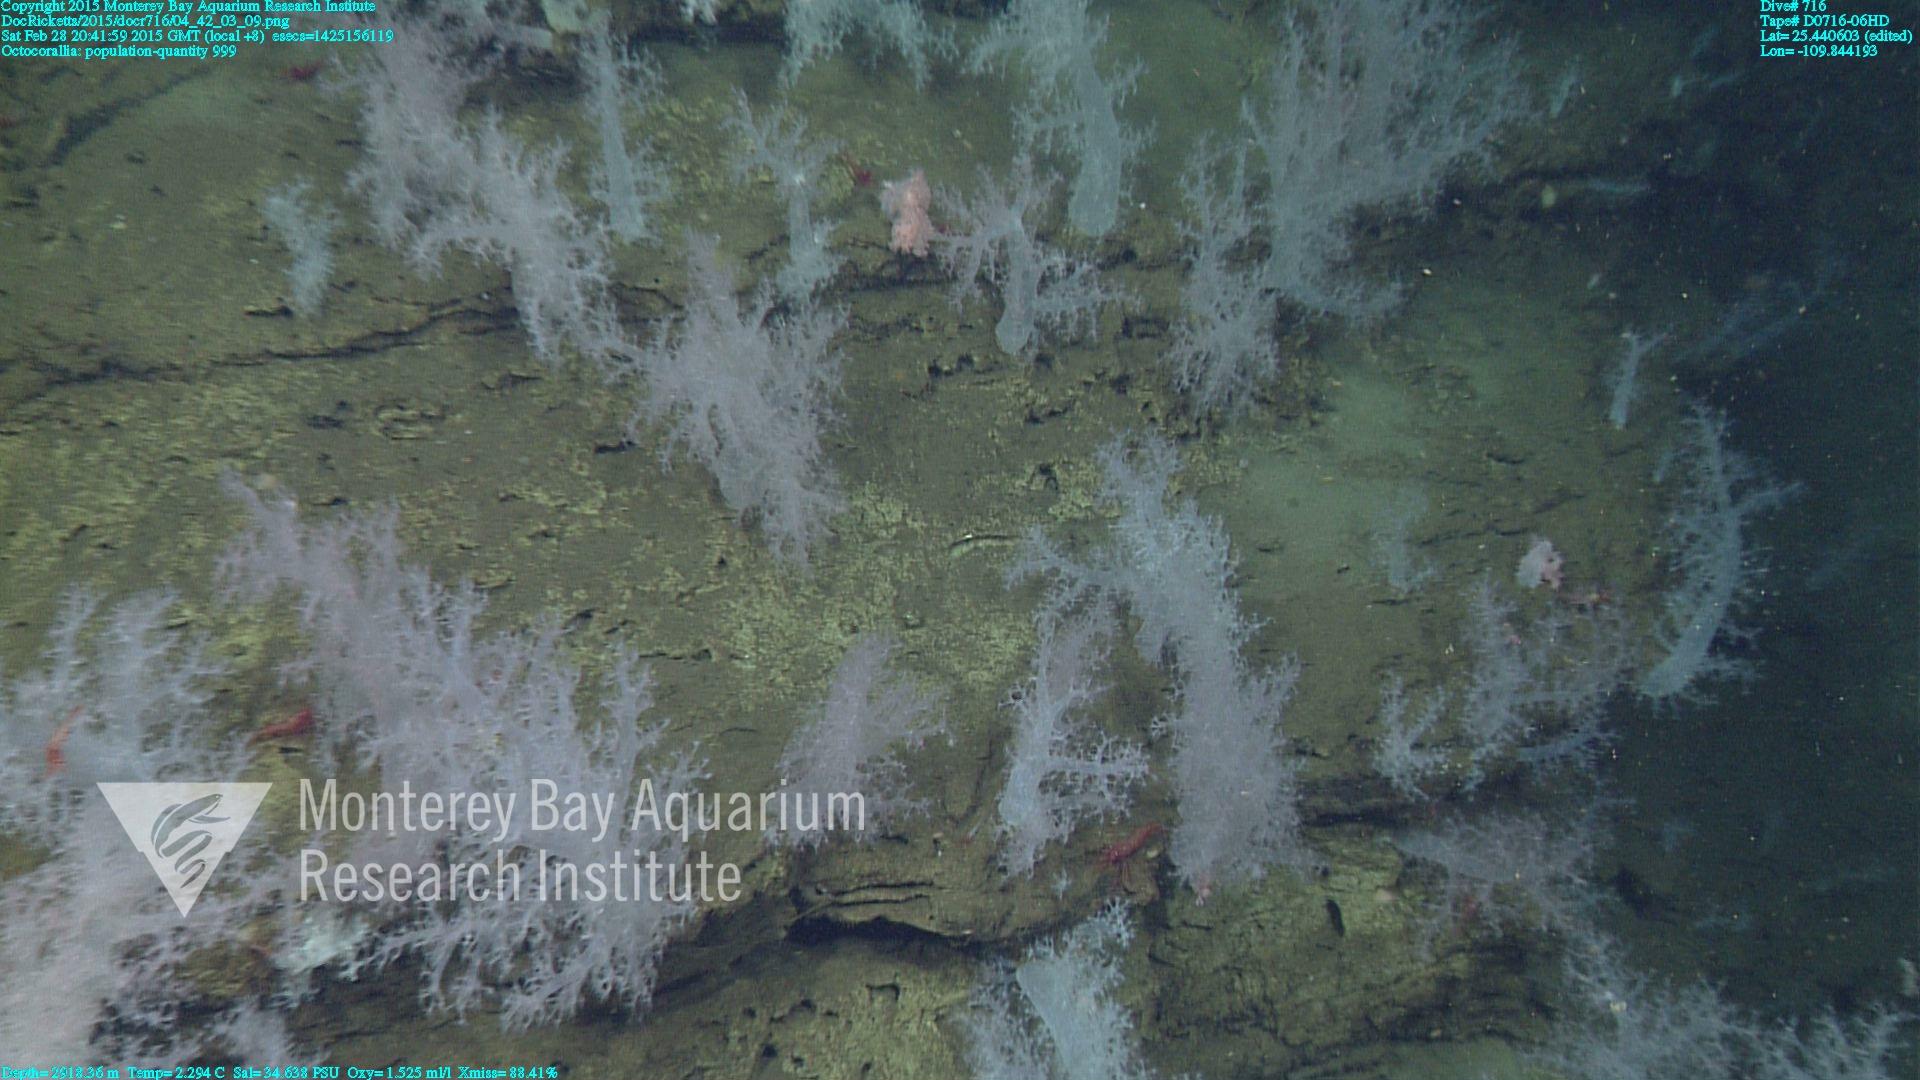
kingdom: Animalia
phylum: Cnidaria
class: Anthozoa
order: Malacalcyonacea
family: Alcyoniidae
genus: Gersemia
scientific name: Gersemia juliepackardae
